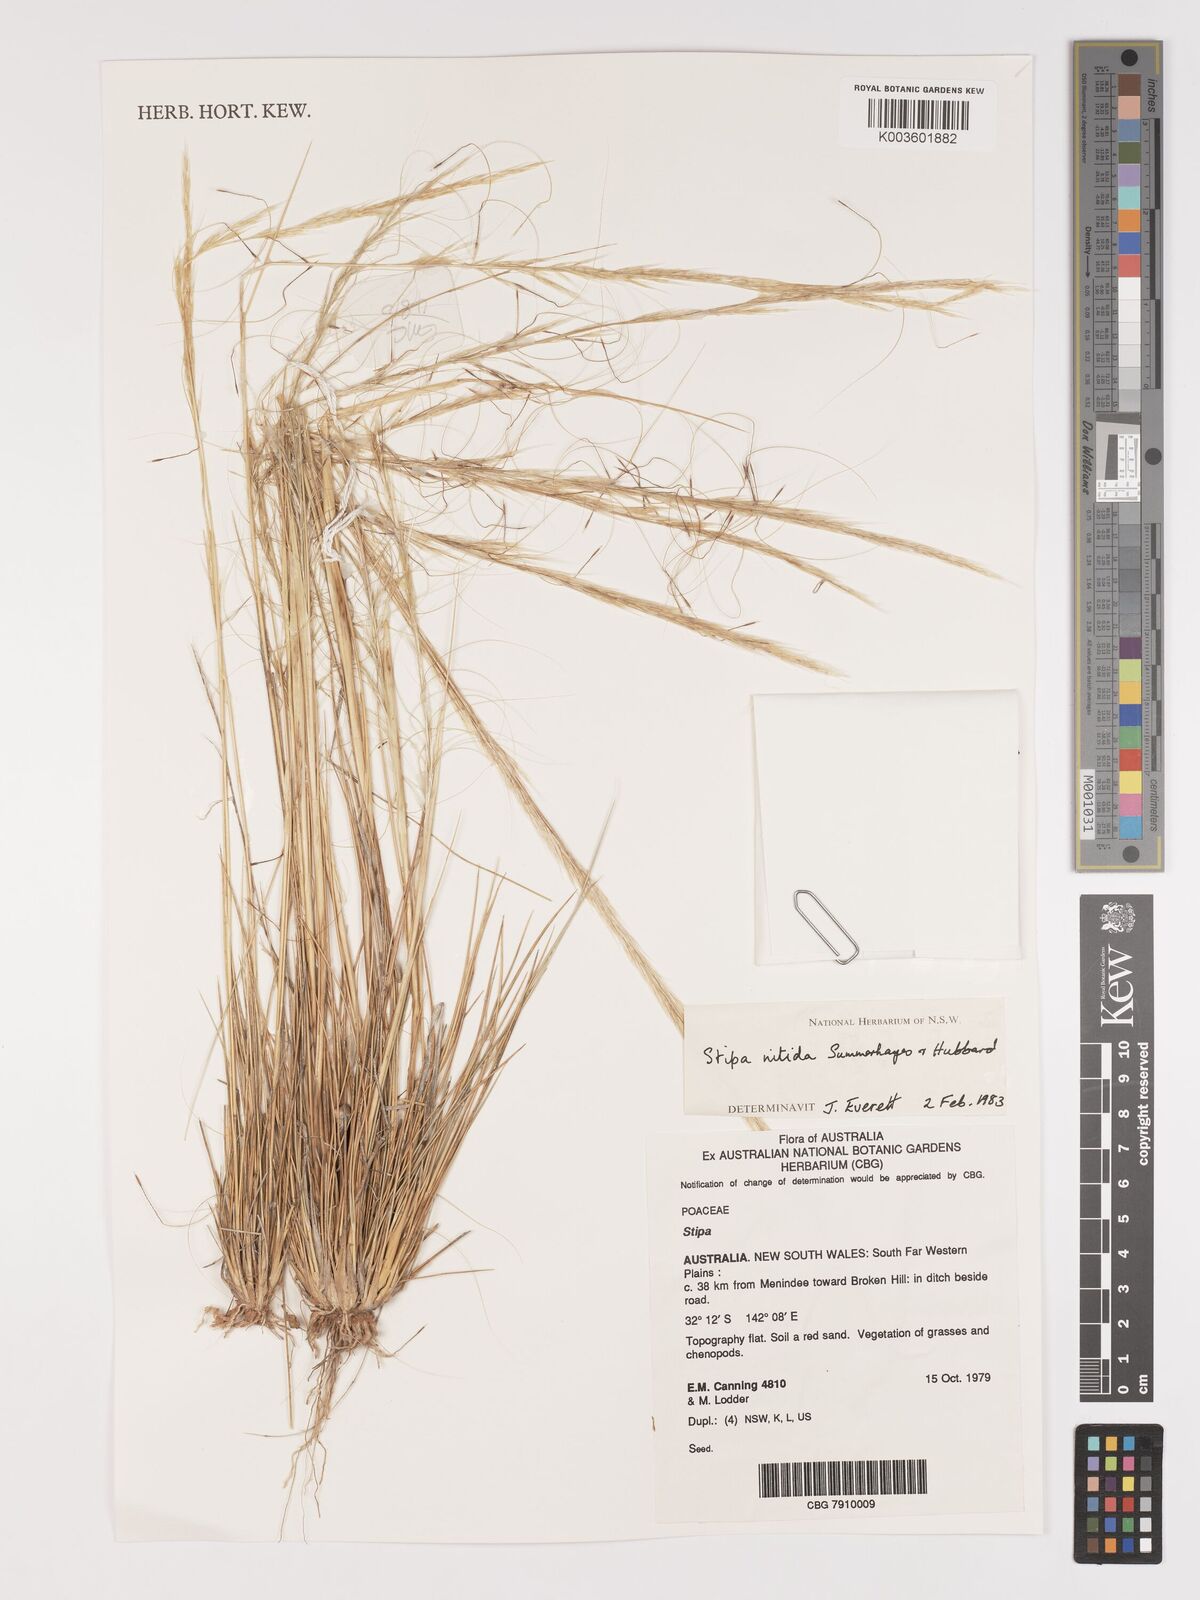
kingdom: Plantae
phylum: Tracheophyta
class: Liliopsida
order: Poales
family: Poaceae
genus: Austrostipa
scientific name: Austrostipa nitida
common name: Balcarra grass
